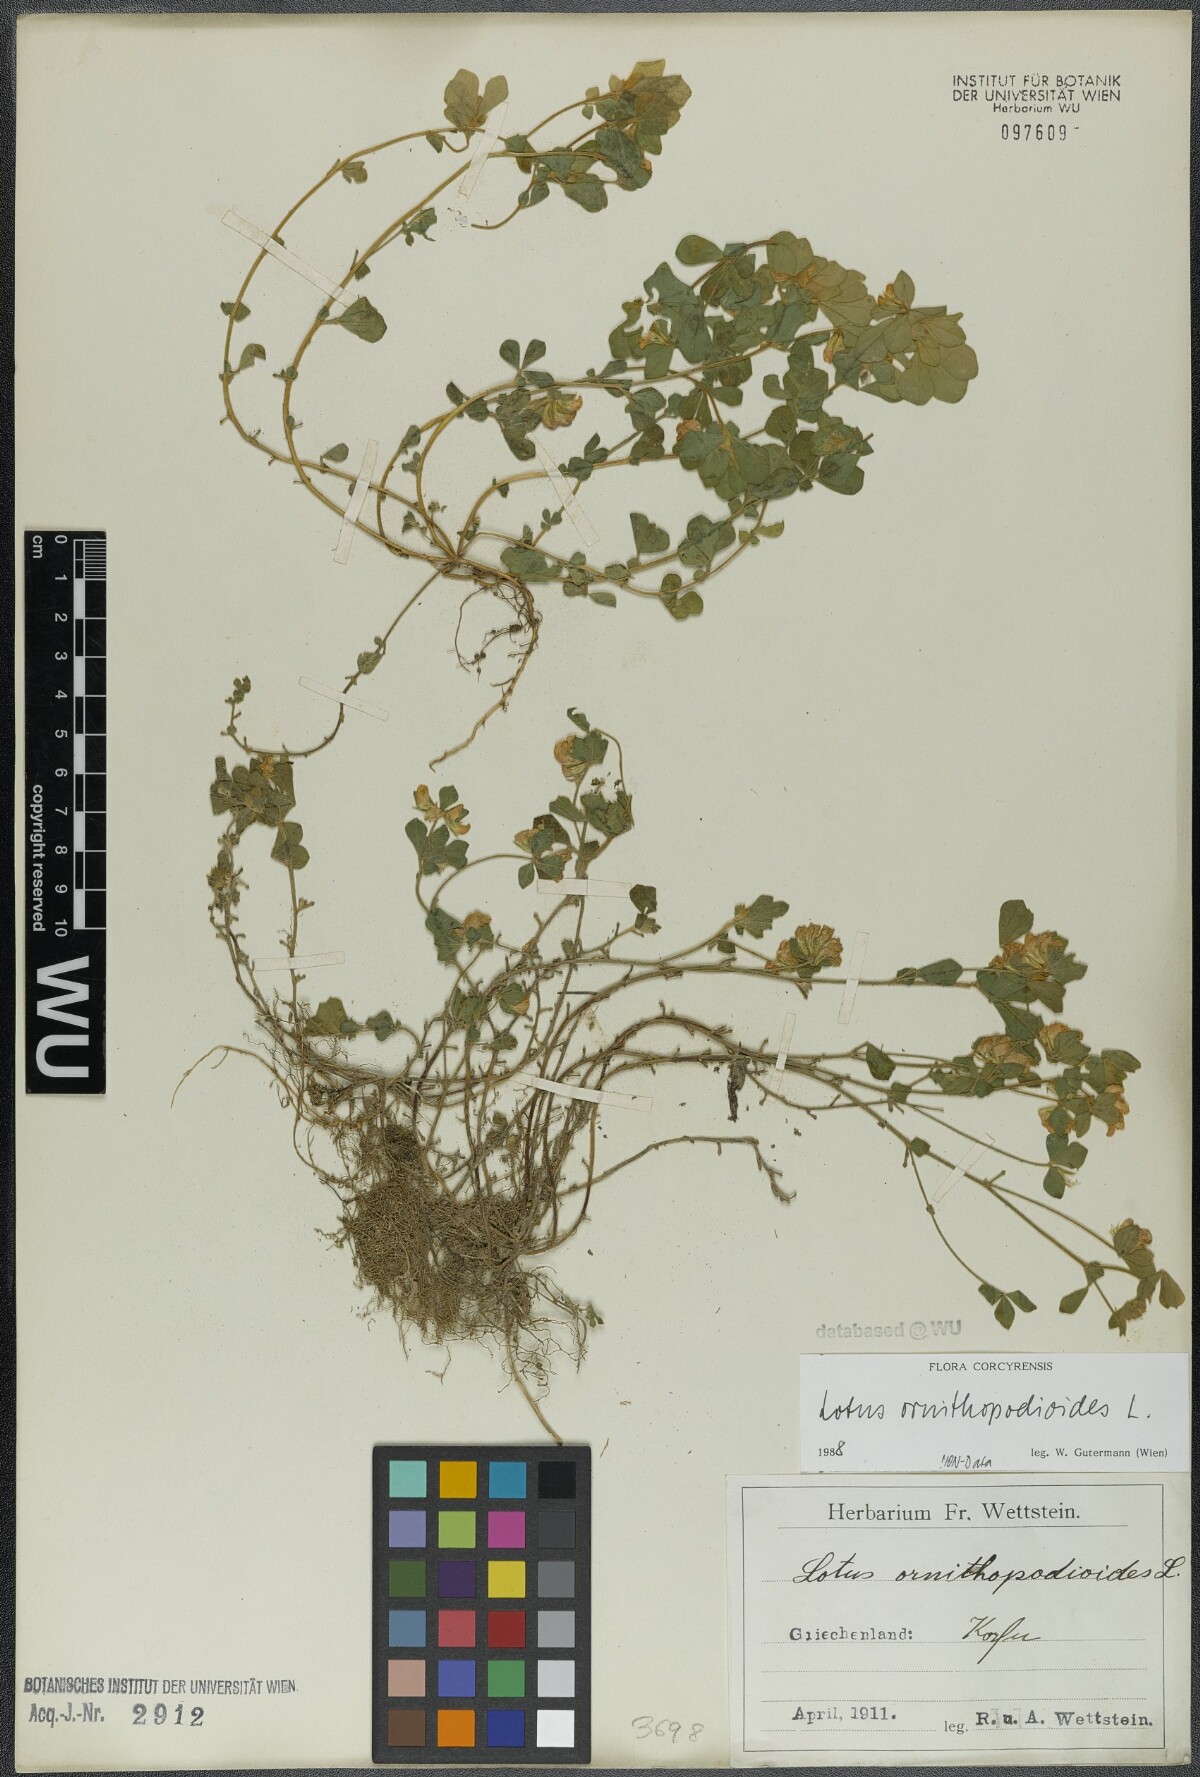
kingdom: Plantae
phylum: Tracheophyta
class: Magnoliopsida
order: Fabales
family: Fabaceae
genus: Lotus
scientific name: Lotus ornithopodioides
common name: Southern bird's-foot trefoil
